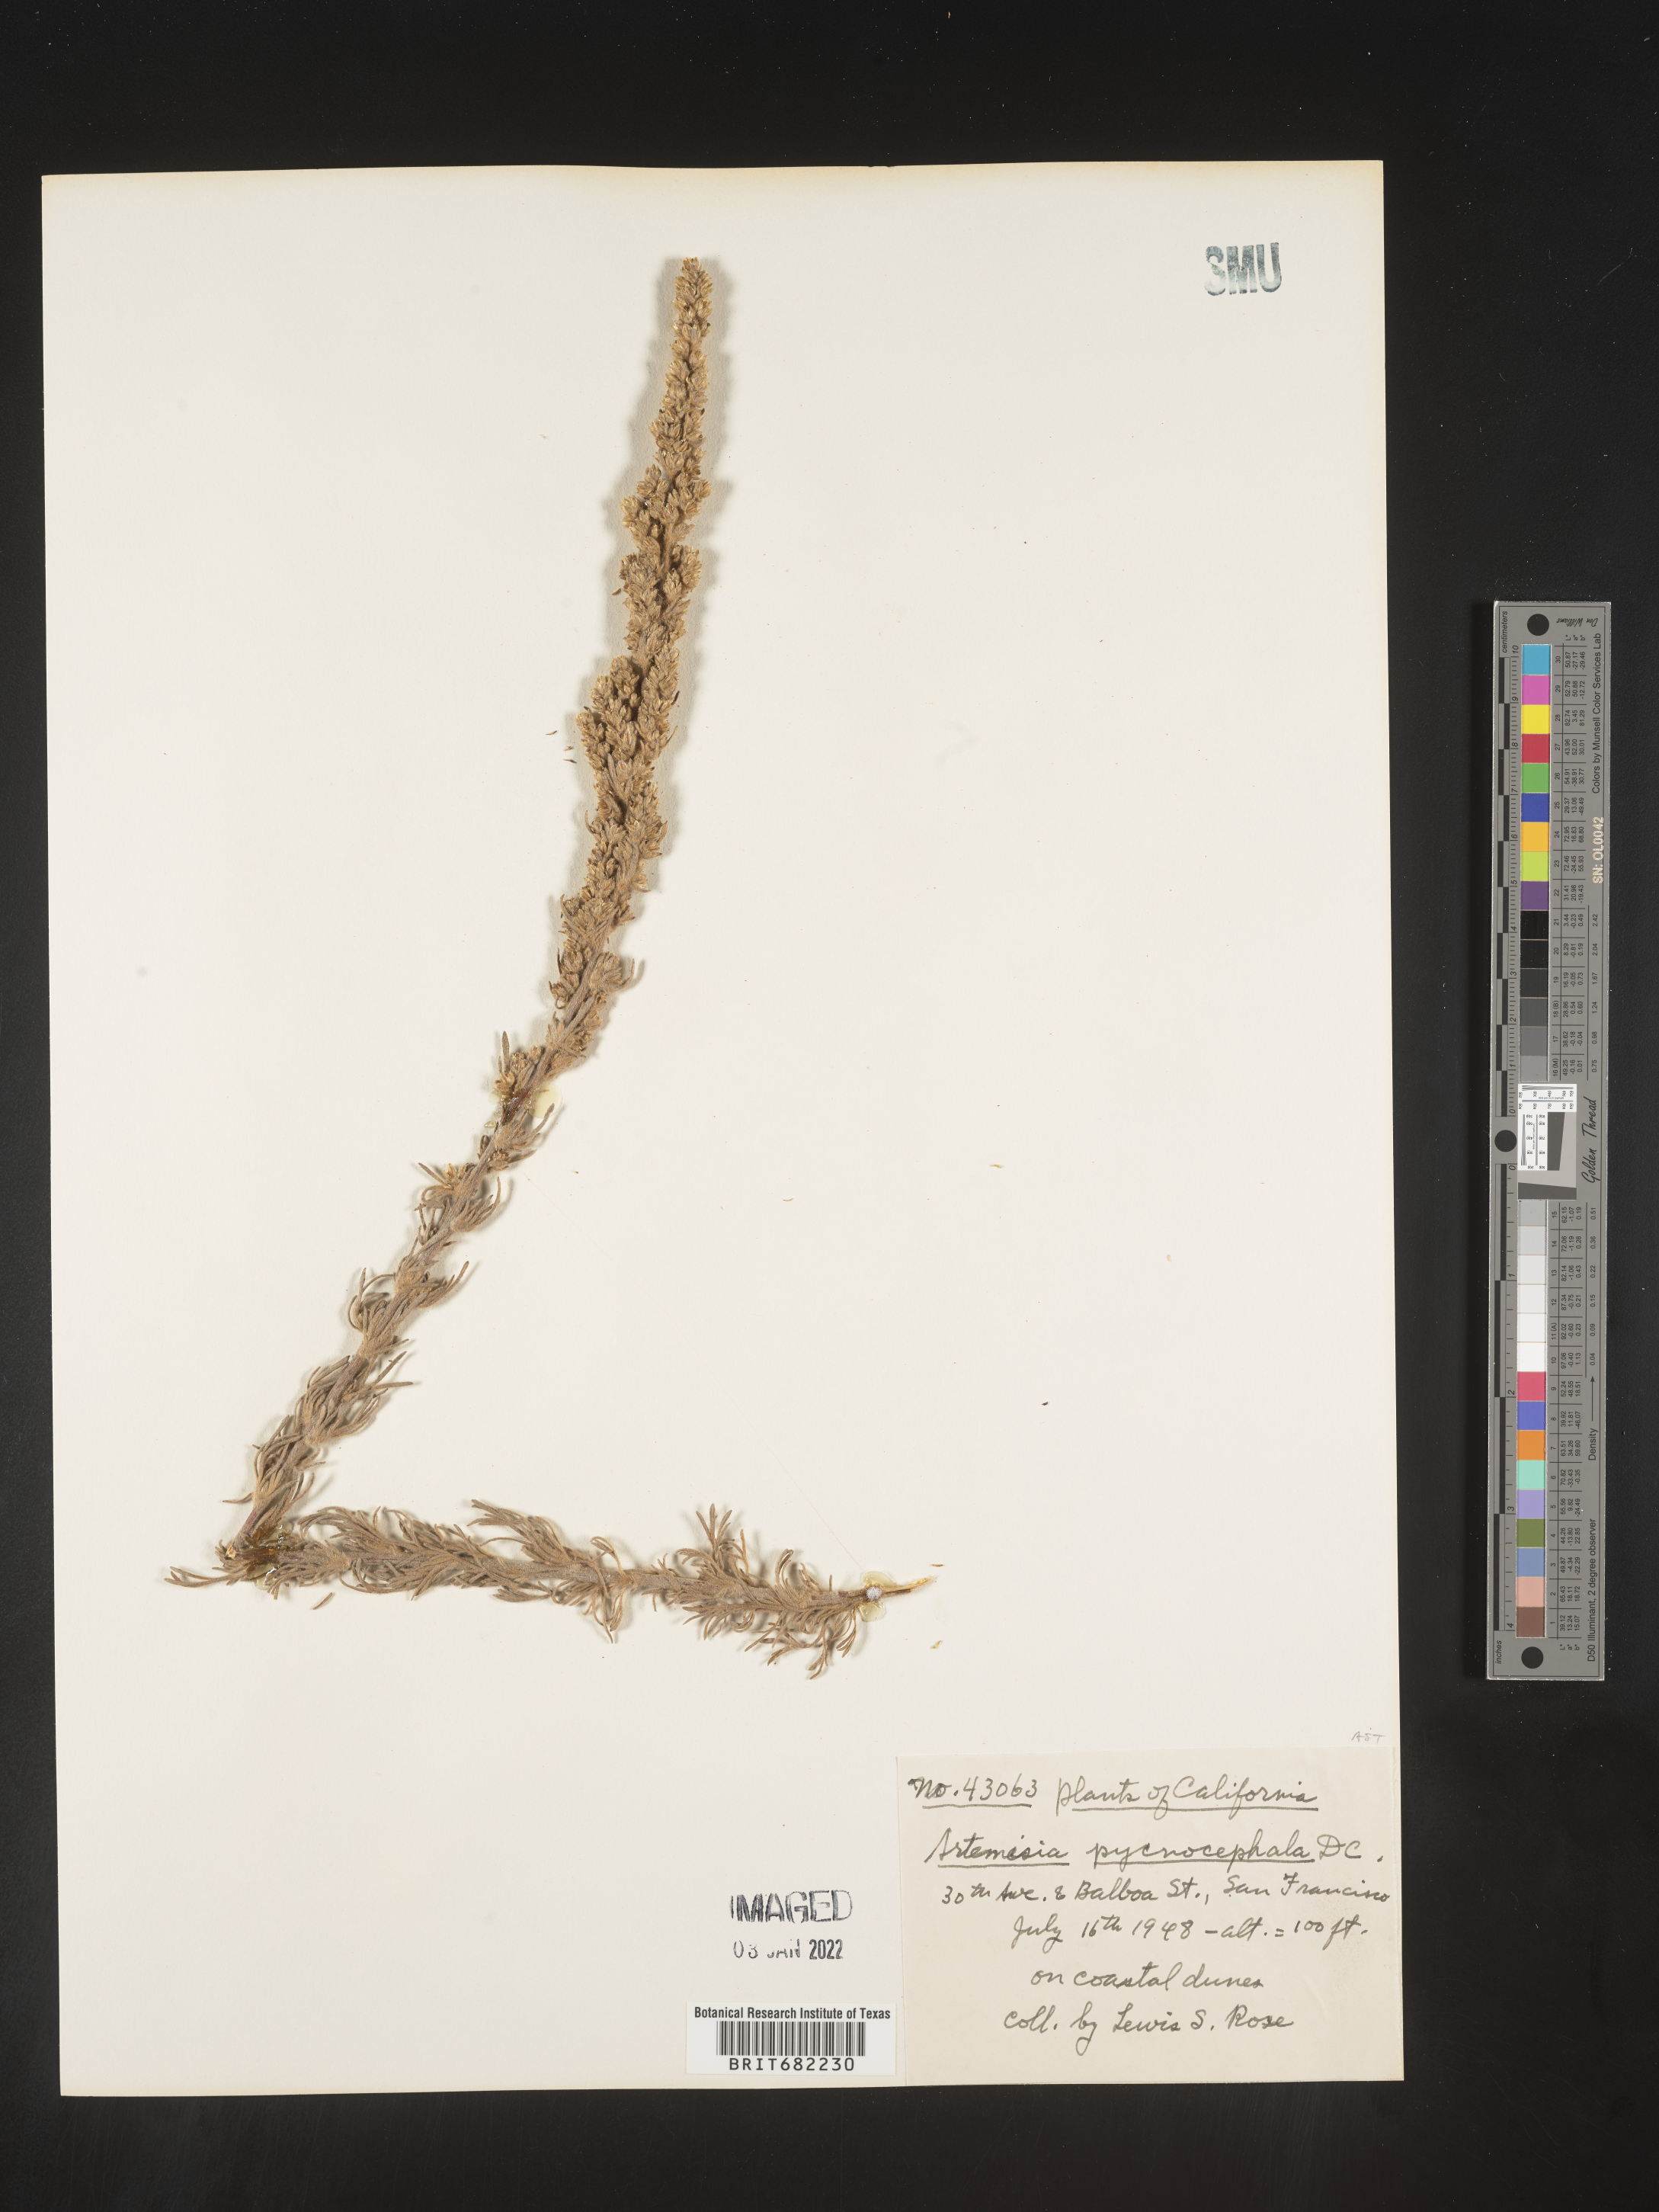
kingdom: Plantae
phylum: Tracheophyta
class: Magnoliopsida
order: Asterales
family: Asteraceae
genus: Artemisia
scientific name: Artemisia pycnocephala
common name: Coastal sagewort
